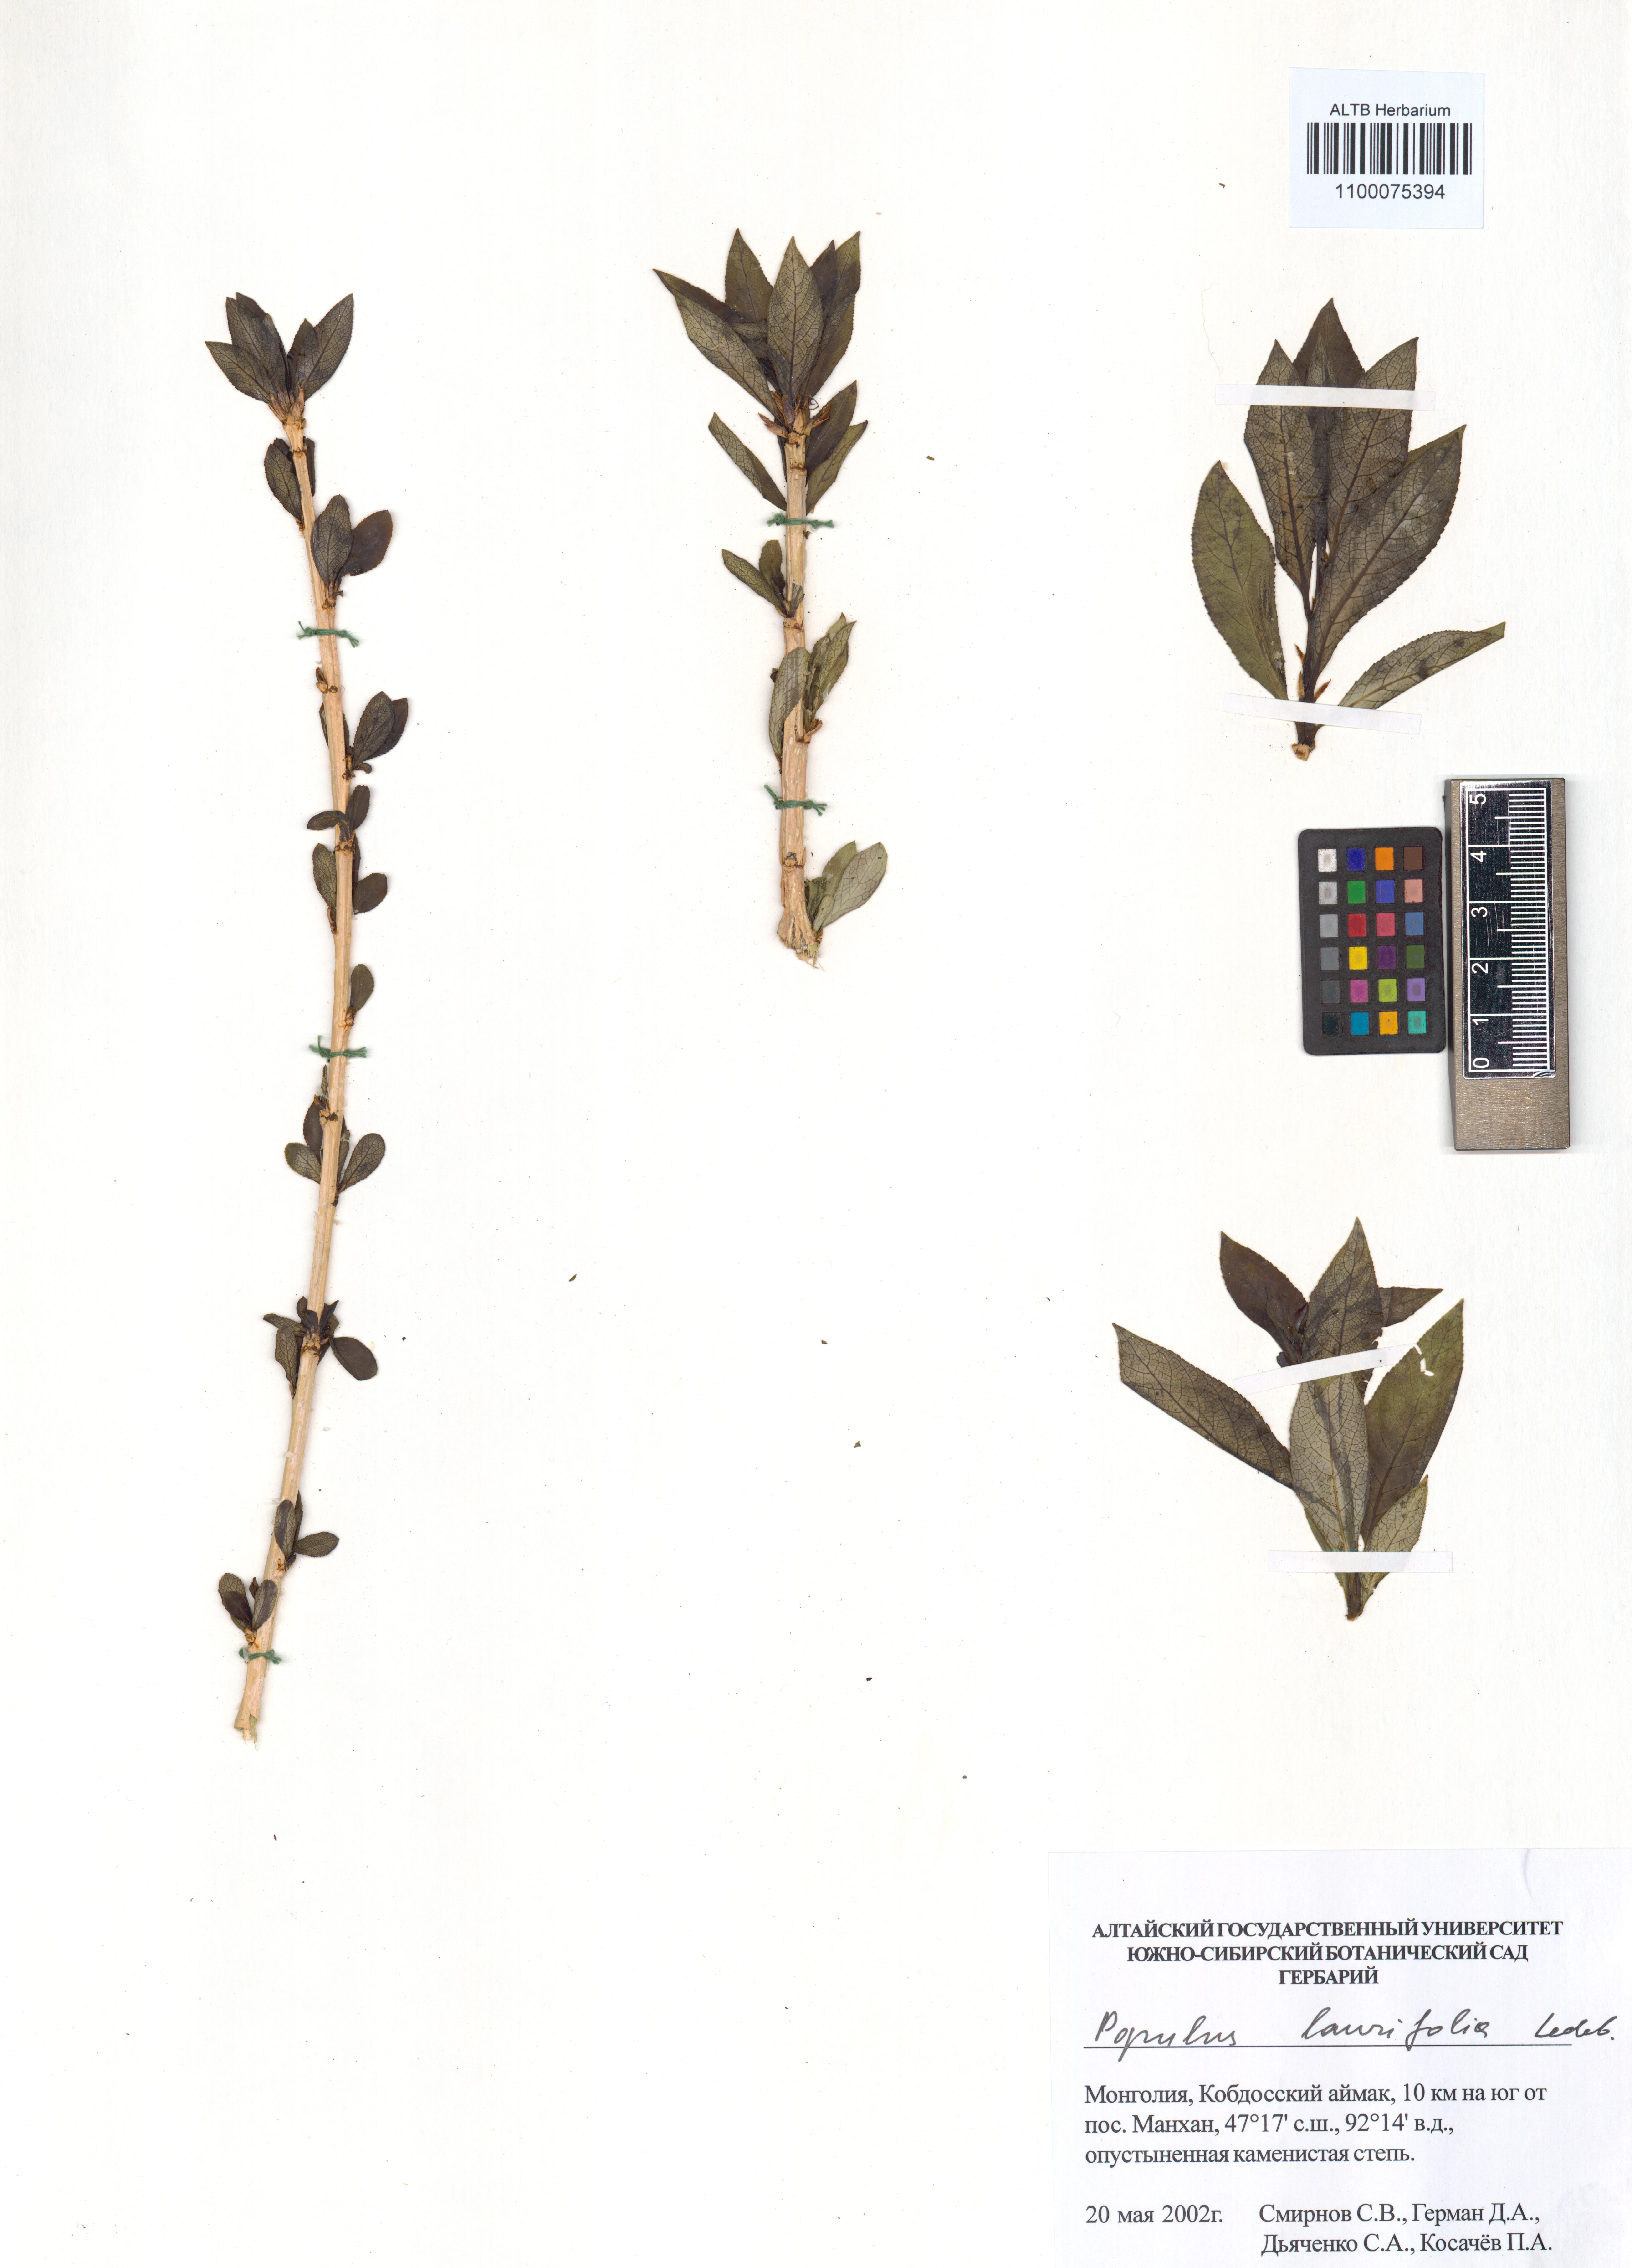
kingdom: Plantae
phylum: Tracheophyta
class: Magnoliopsida
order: Malpighiales
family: Salicaceae
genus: Populus
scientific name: Populus laurifolia
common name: Laurel-leaf poplar
